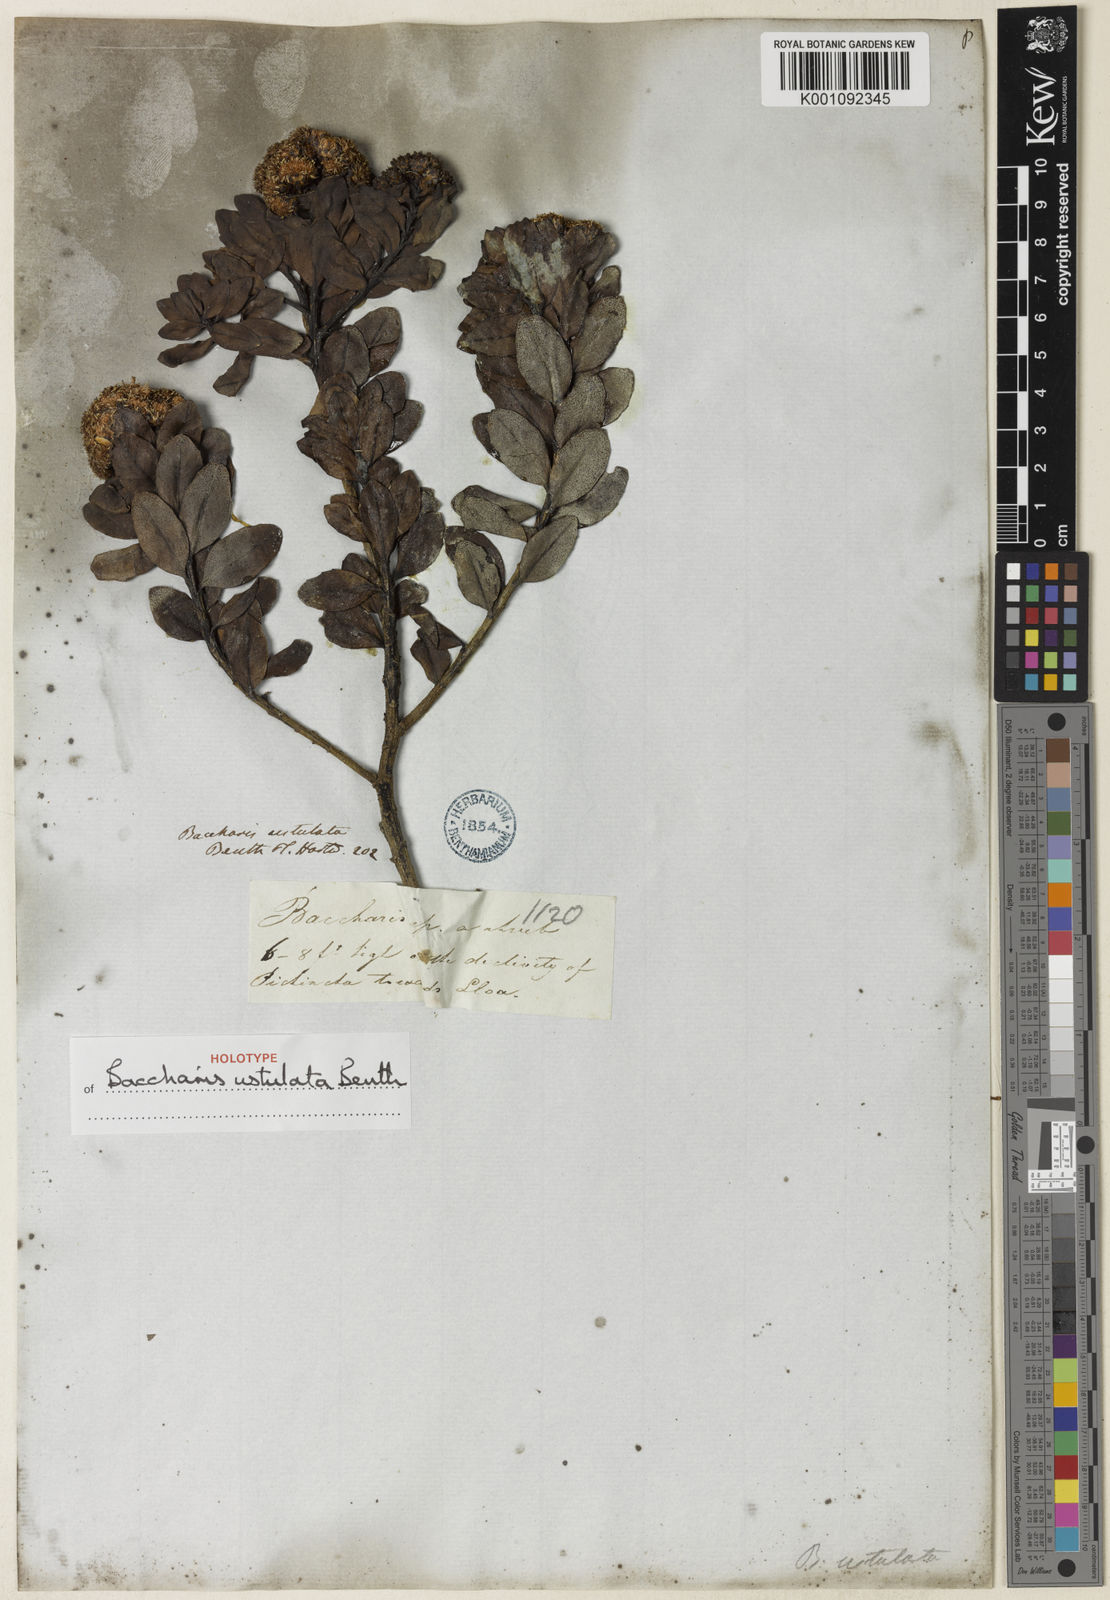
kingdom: Plantae
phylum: Tracheophyta
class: Magnoliopsida
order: Asterales
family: Asteraceae
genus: Baccharis
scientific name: Baccharis macrantha
